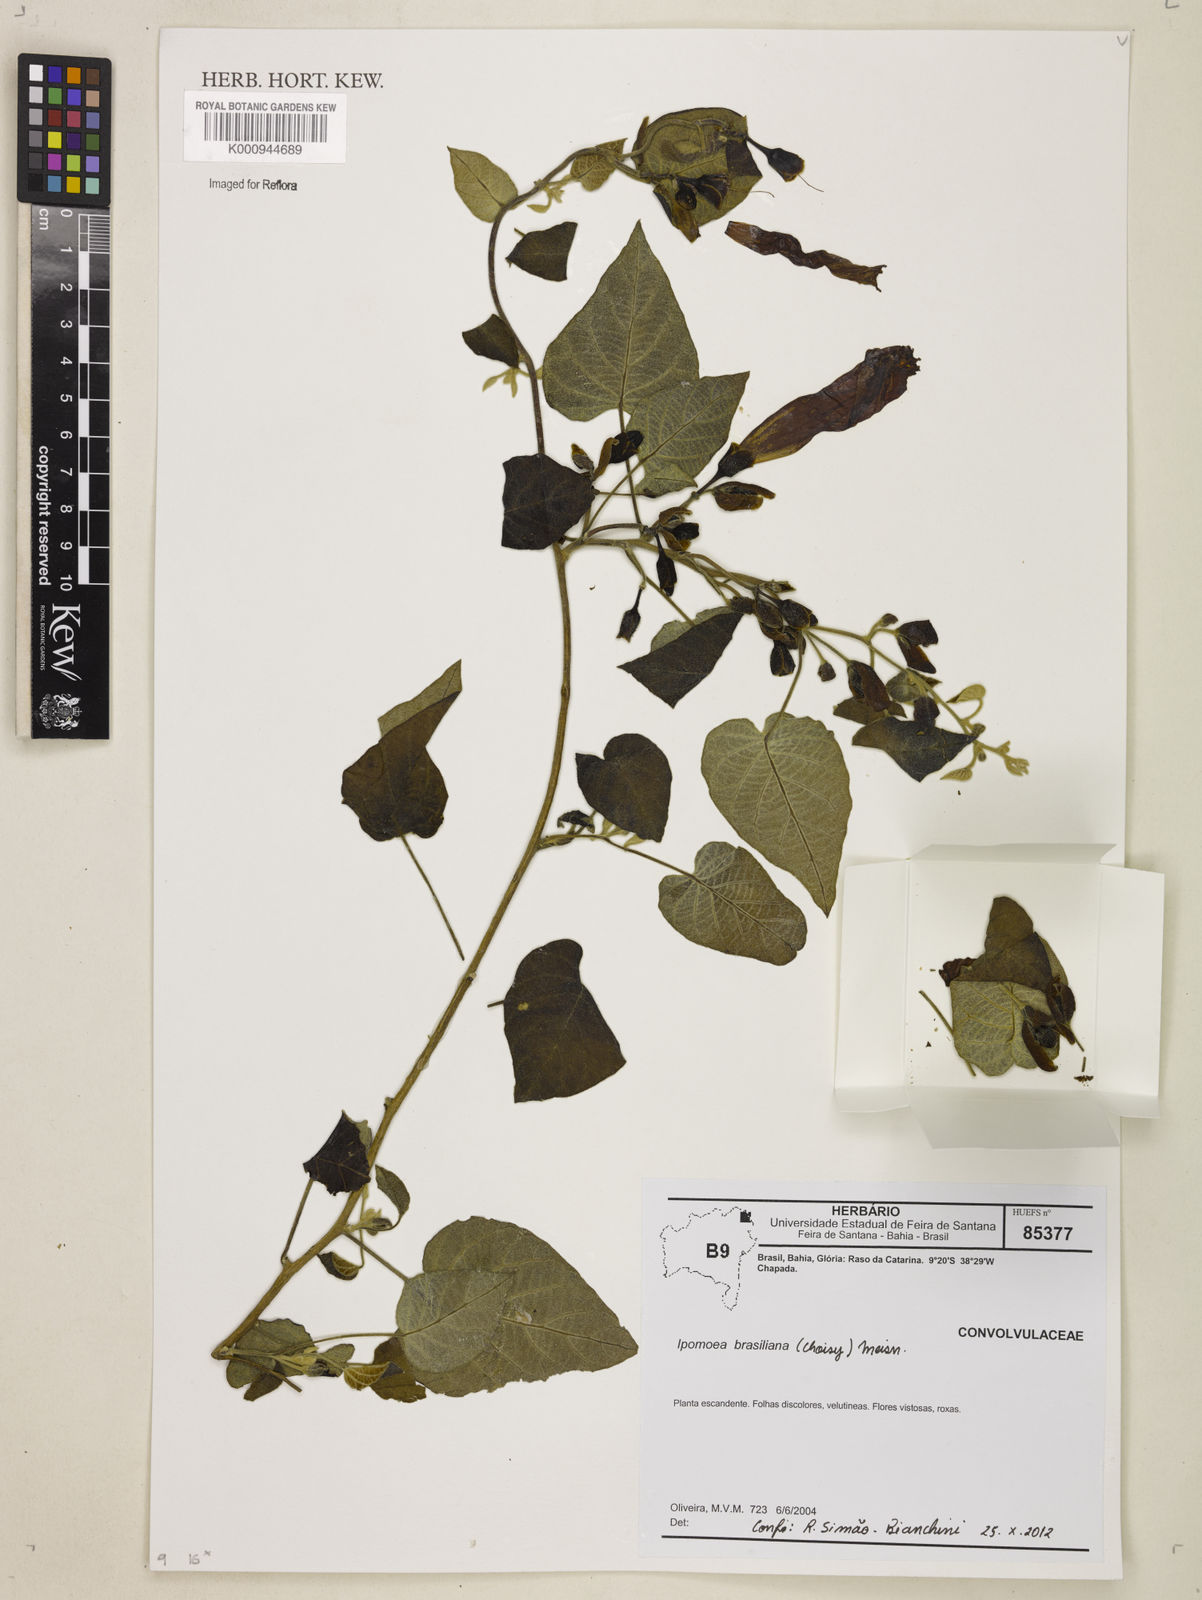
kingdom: Plantae
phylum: Tracheophyta
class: Magnoliopsida
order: Solanales
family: Convolvulaceae
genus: Ipomoea
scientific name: Ipomoea brasiliana
